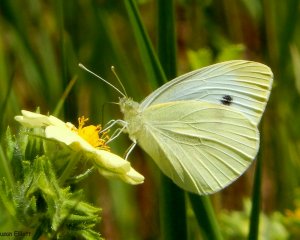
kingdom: Animalia
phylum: Arthropoda
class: Insecta
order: Lepidoptera
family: Pieridae
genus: Pieris
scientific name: Pieris rapae
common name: Cabbage White
